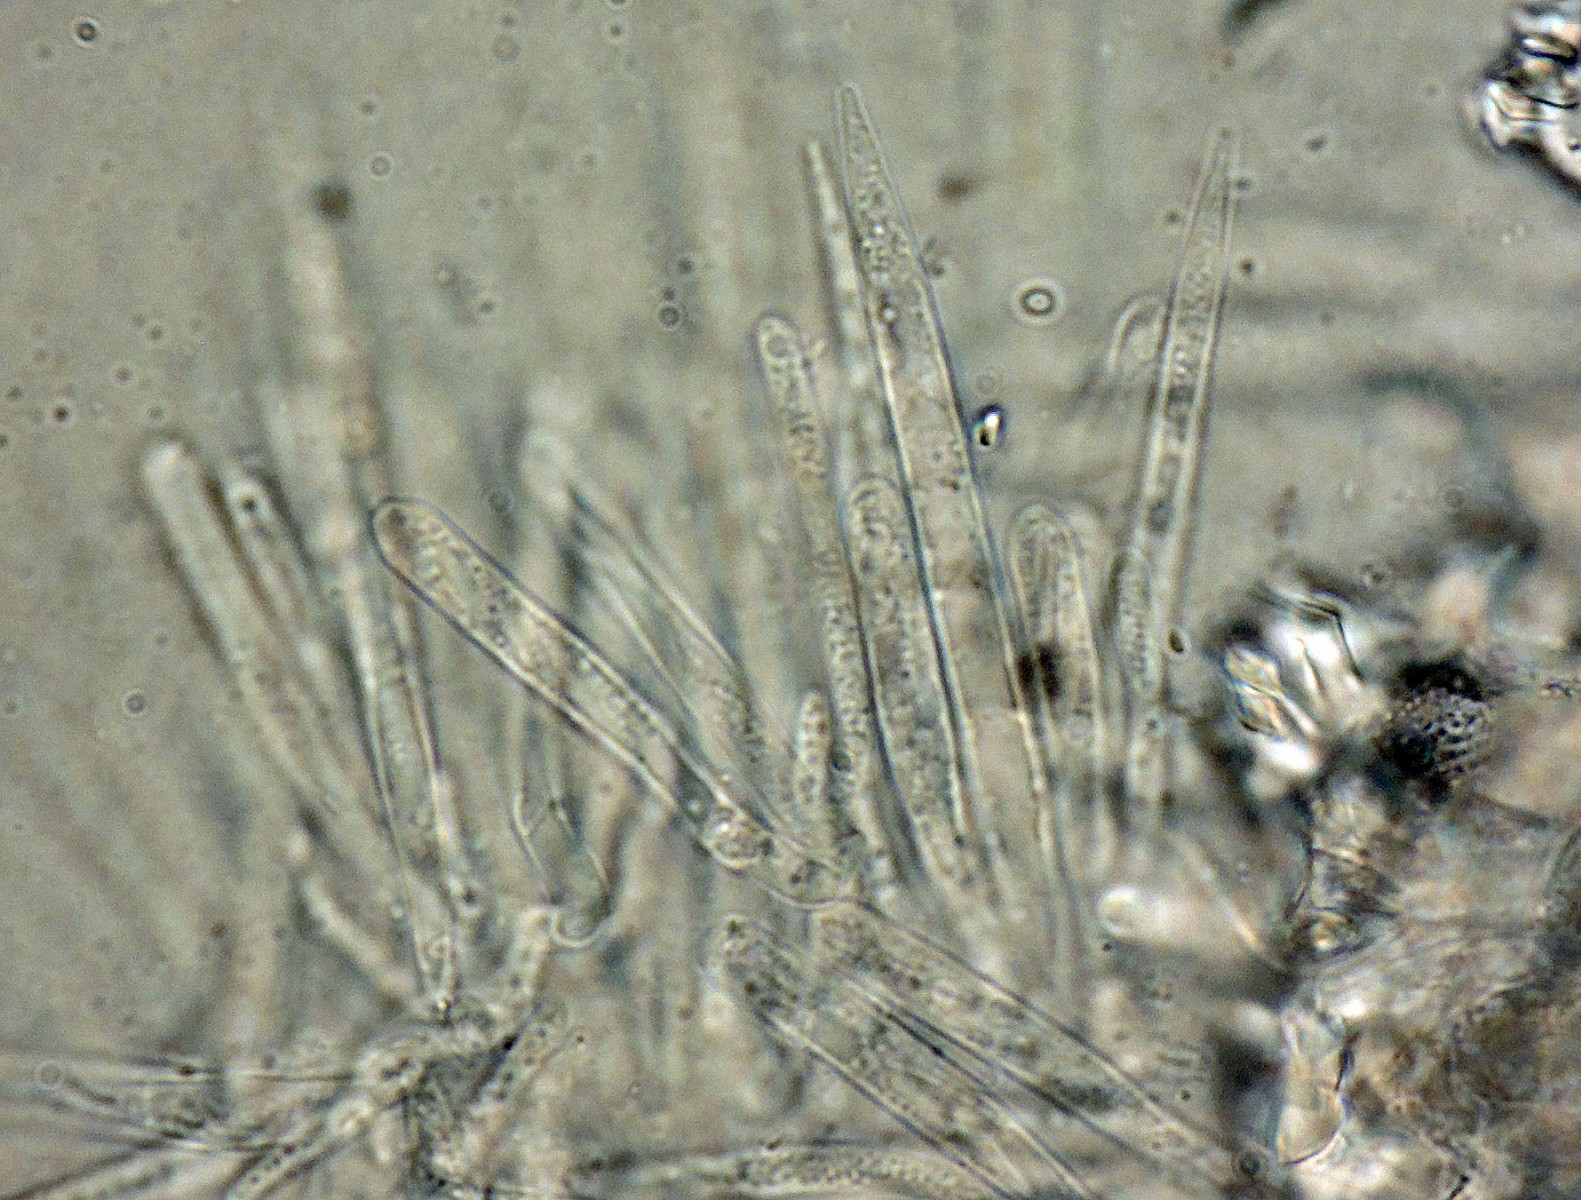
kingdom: Fungi
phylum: Ascomycota
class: Leotiomycetes
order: Helotiales
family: Lachnaceae
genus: Lachnum
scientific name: Lachnum rhytismatis
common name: blad-frynseskive
